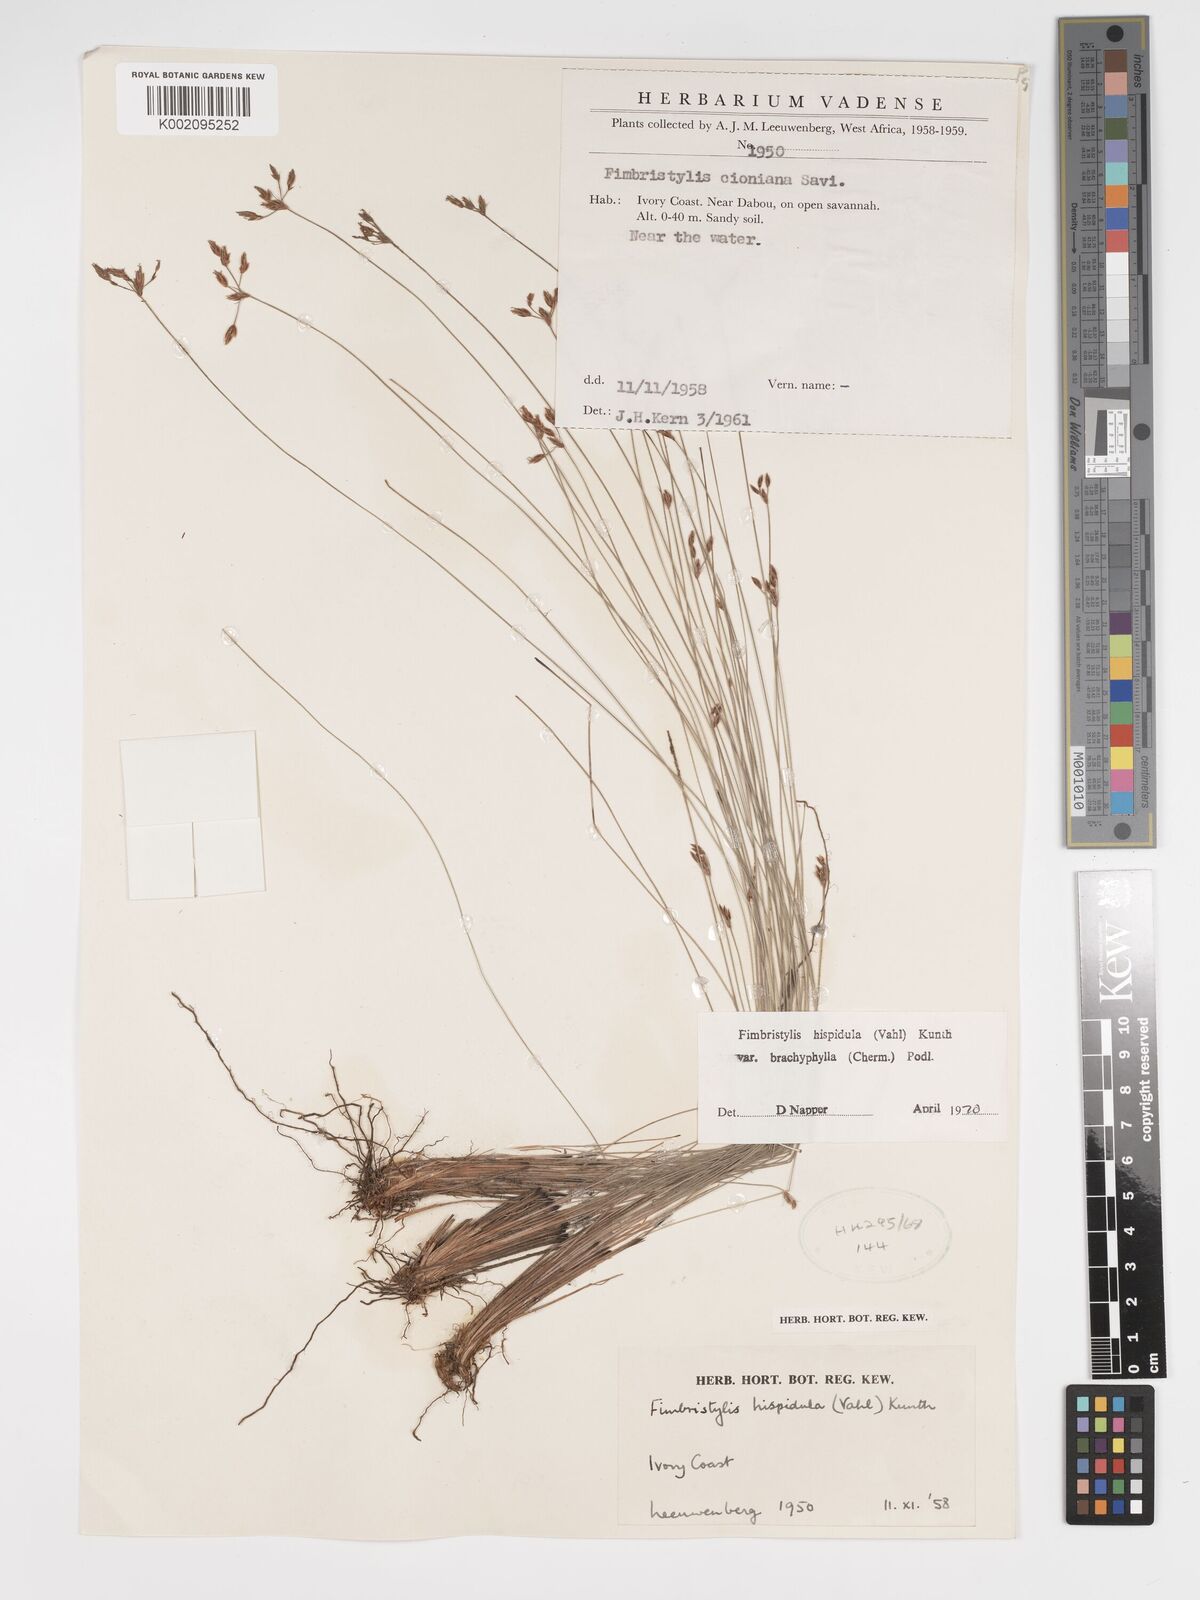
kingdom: Plantae
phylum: Tracheophyta
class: Liliopsida
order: Poales
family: Cyperaceae
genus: Bulbostylis
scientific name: Bulbostylis hispidula
